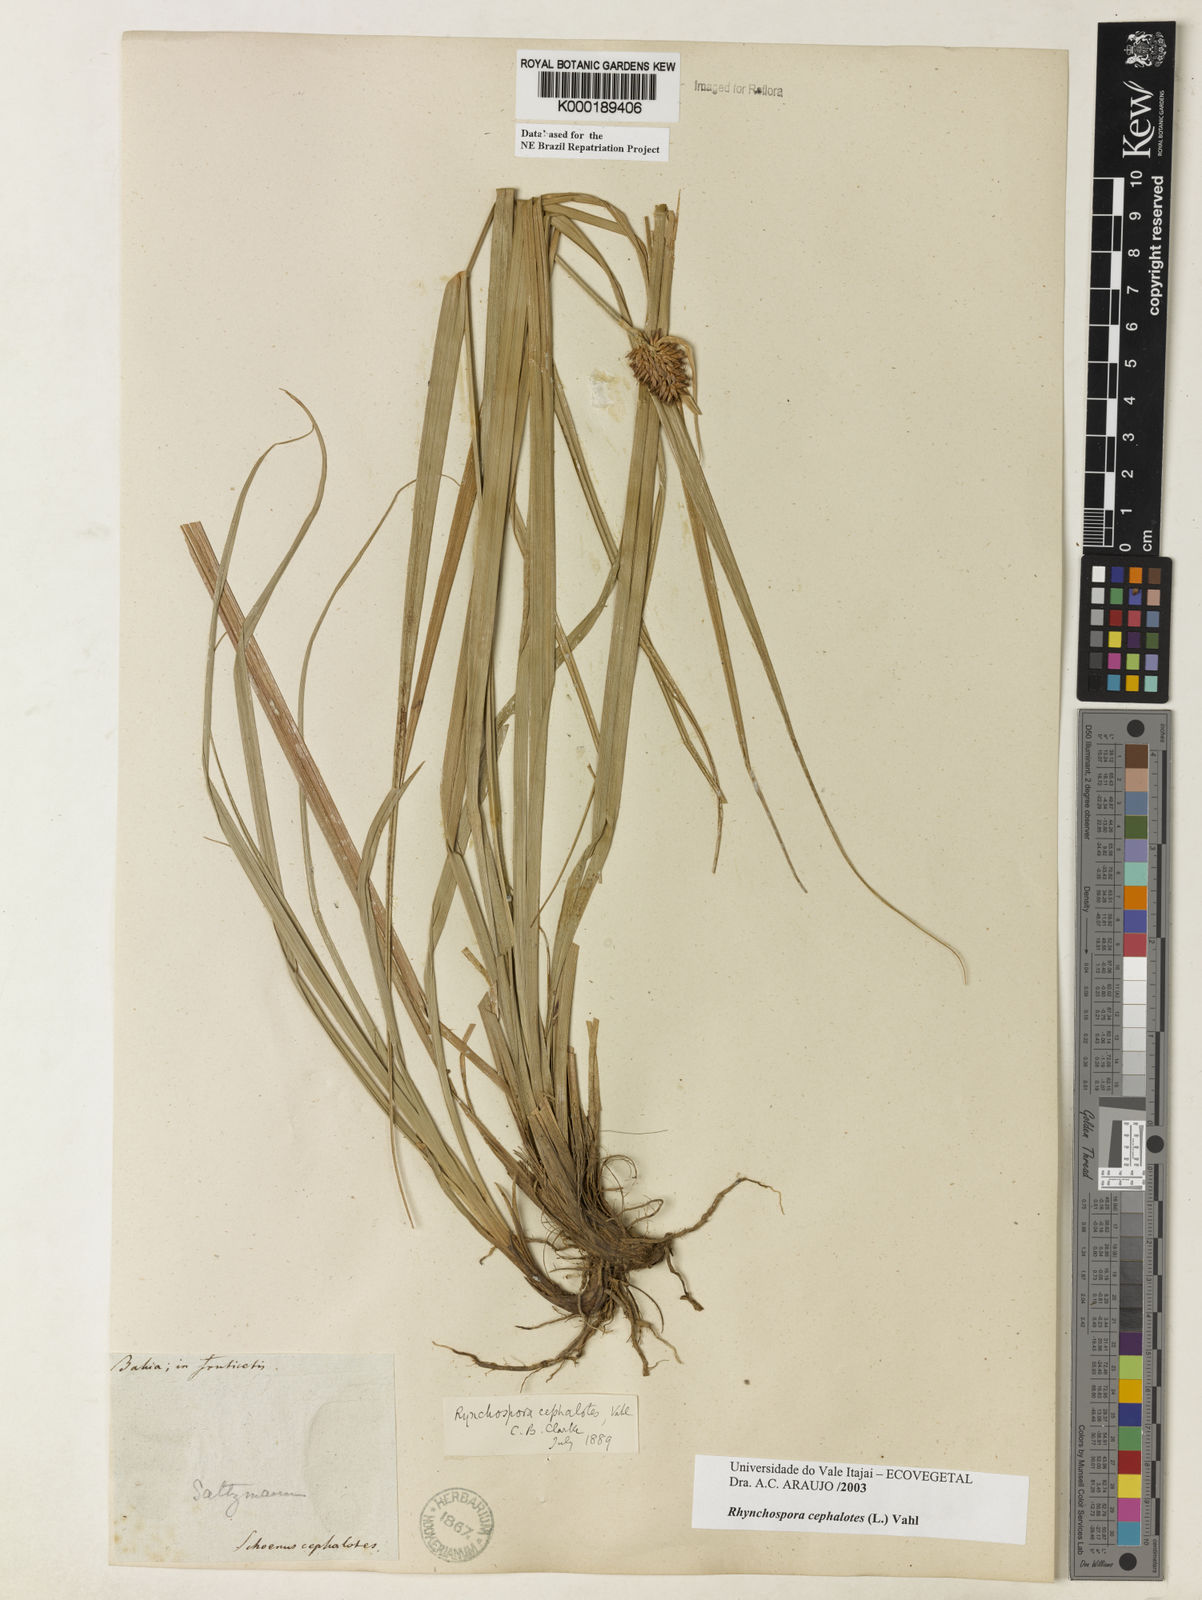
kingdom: Plantae
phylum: Tracheophyta
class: Liliopsida
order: Poales
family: Cyperaceae
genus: Rhynchospora
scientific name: Rhynchospora cephalotes
